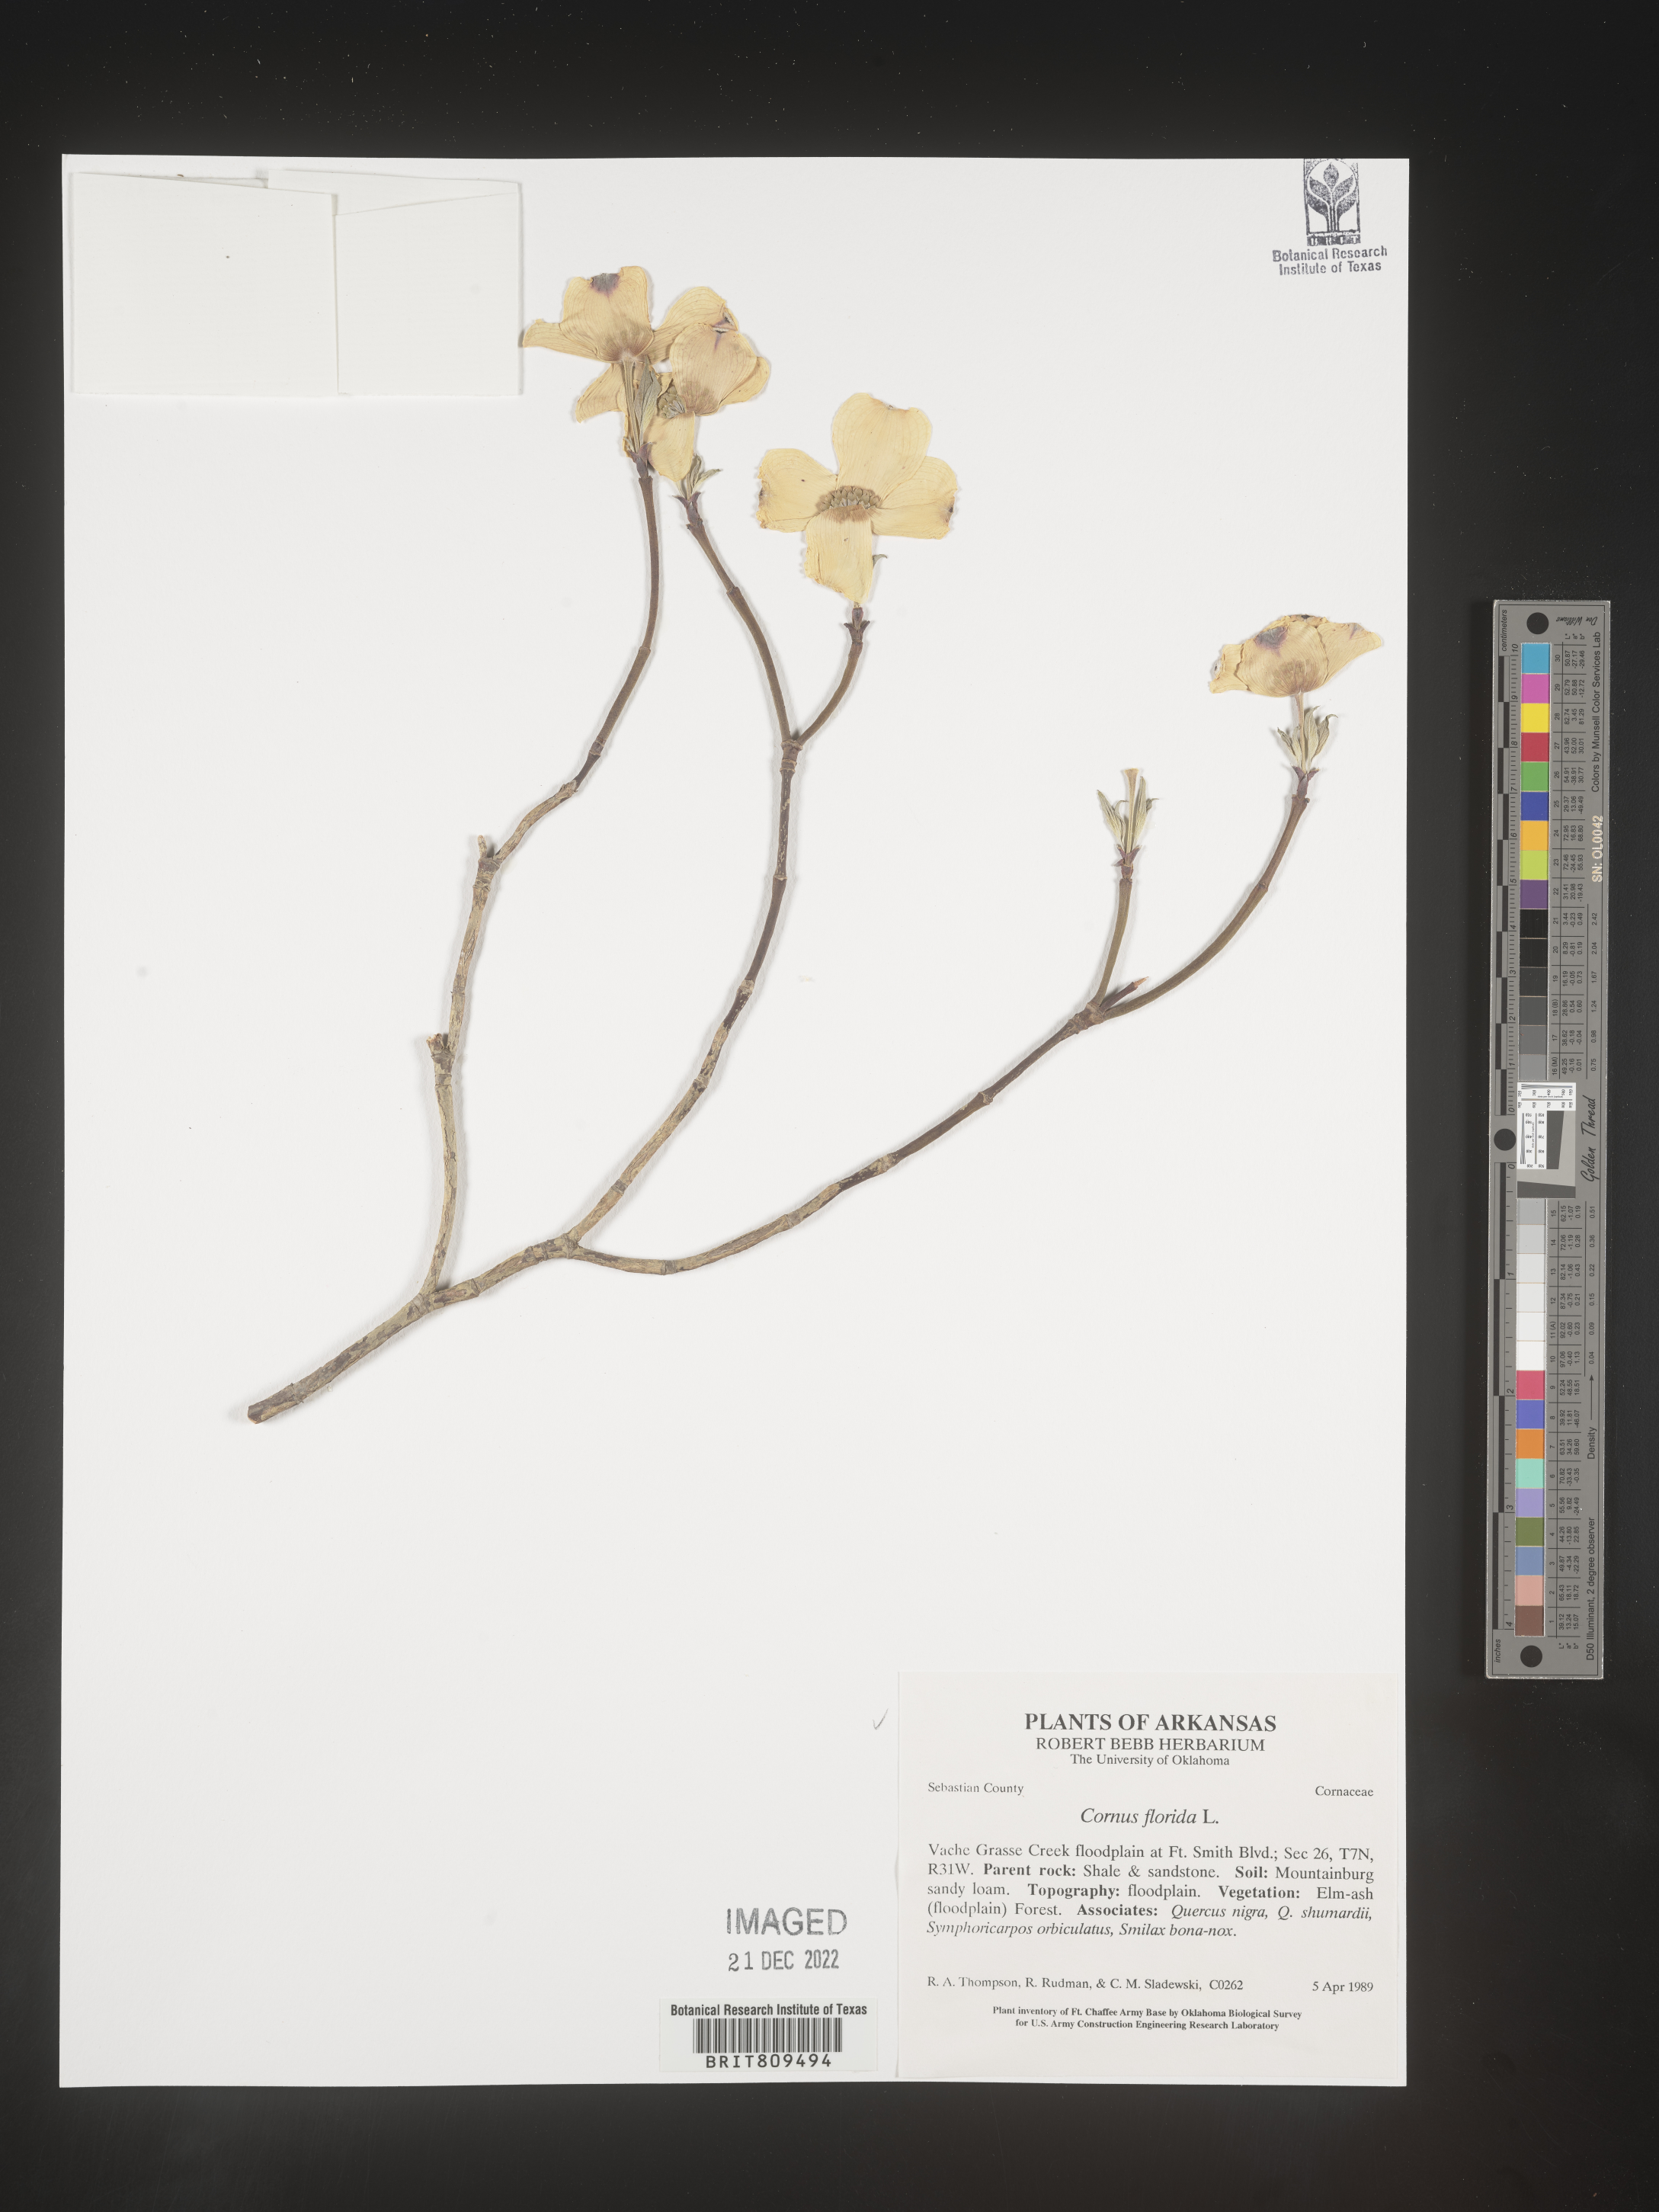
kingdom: Plantae
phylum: Tracheophyta
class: Magnoliopsida
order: Cornales
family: Cornaceae
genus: Cornus
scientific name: Cornus florida
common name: Flowering dogwood
